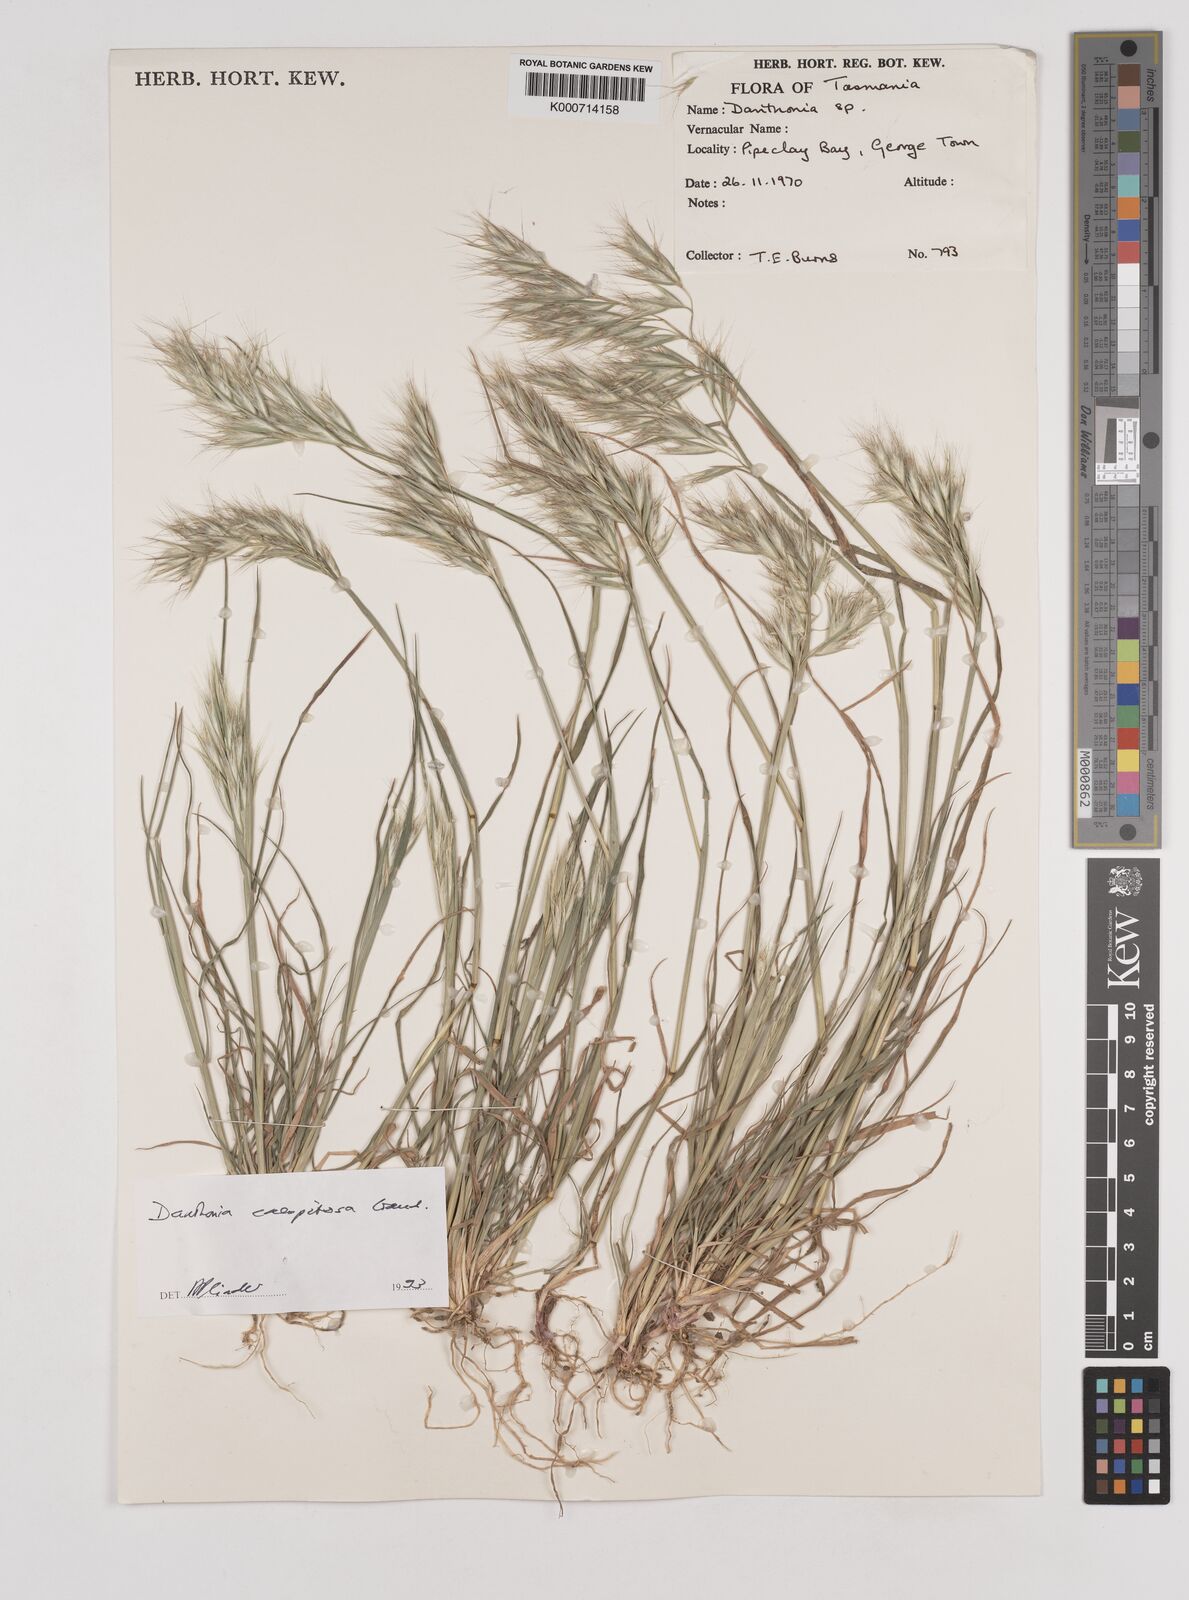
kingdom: Plantae
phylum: Tracheophyta
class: Liliopsida
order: Poales
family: Poaceae
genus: Rytidosperma
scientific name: Rytidosperma
